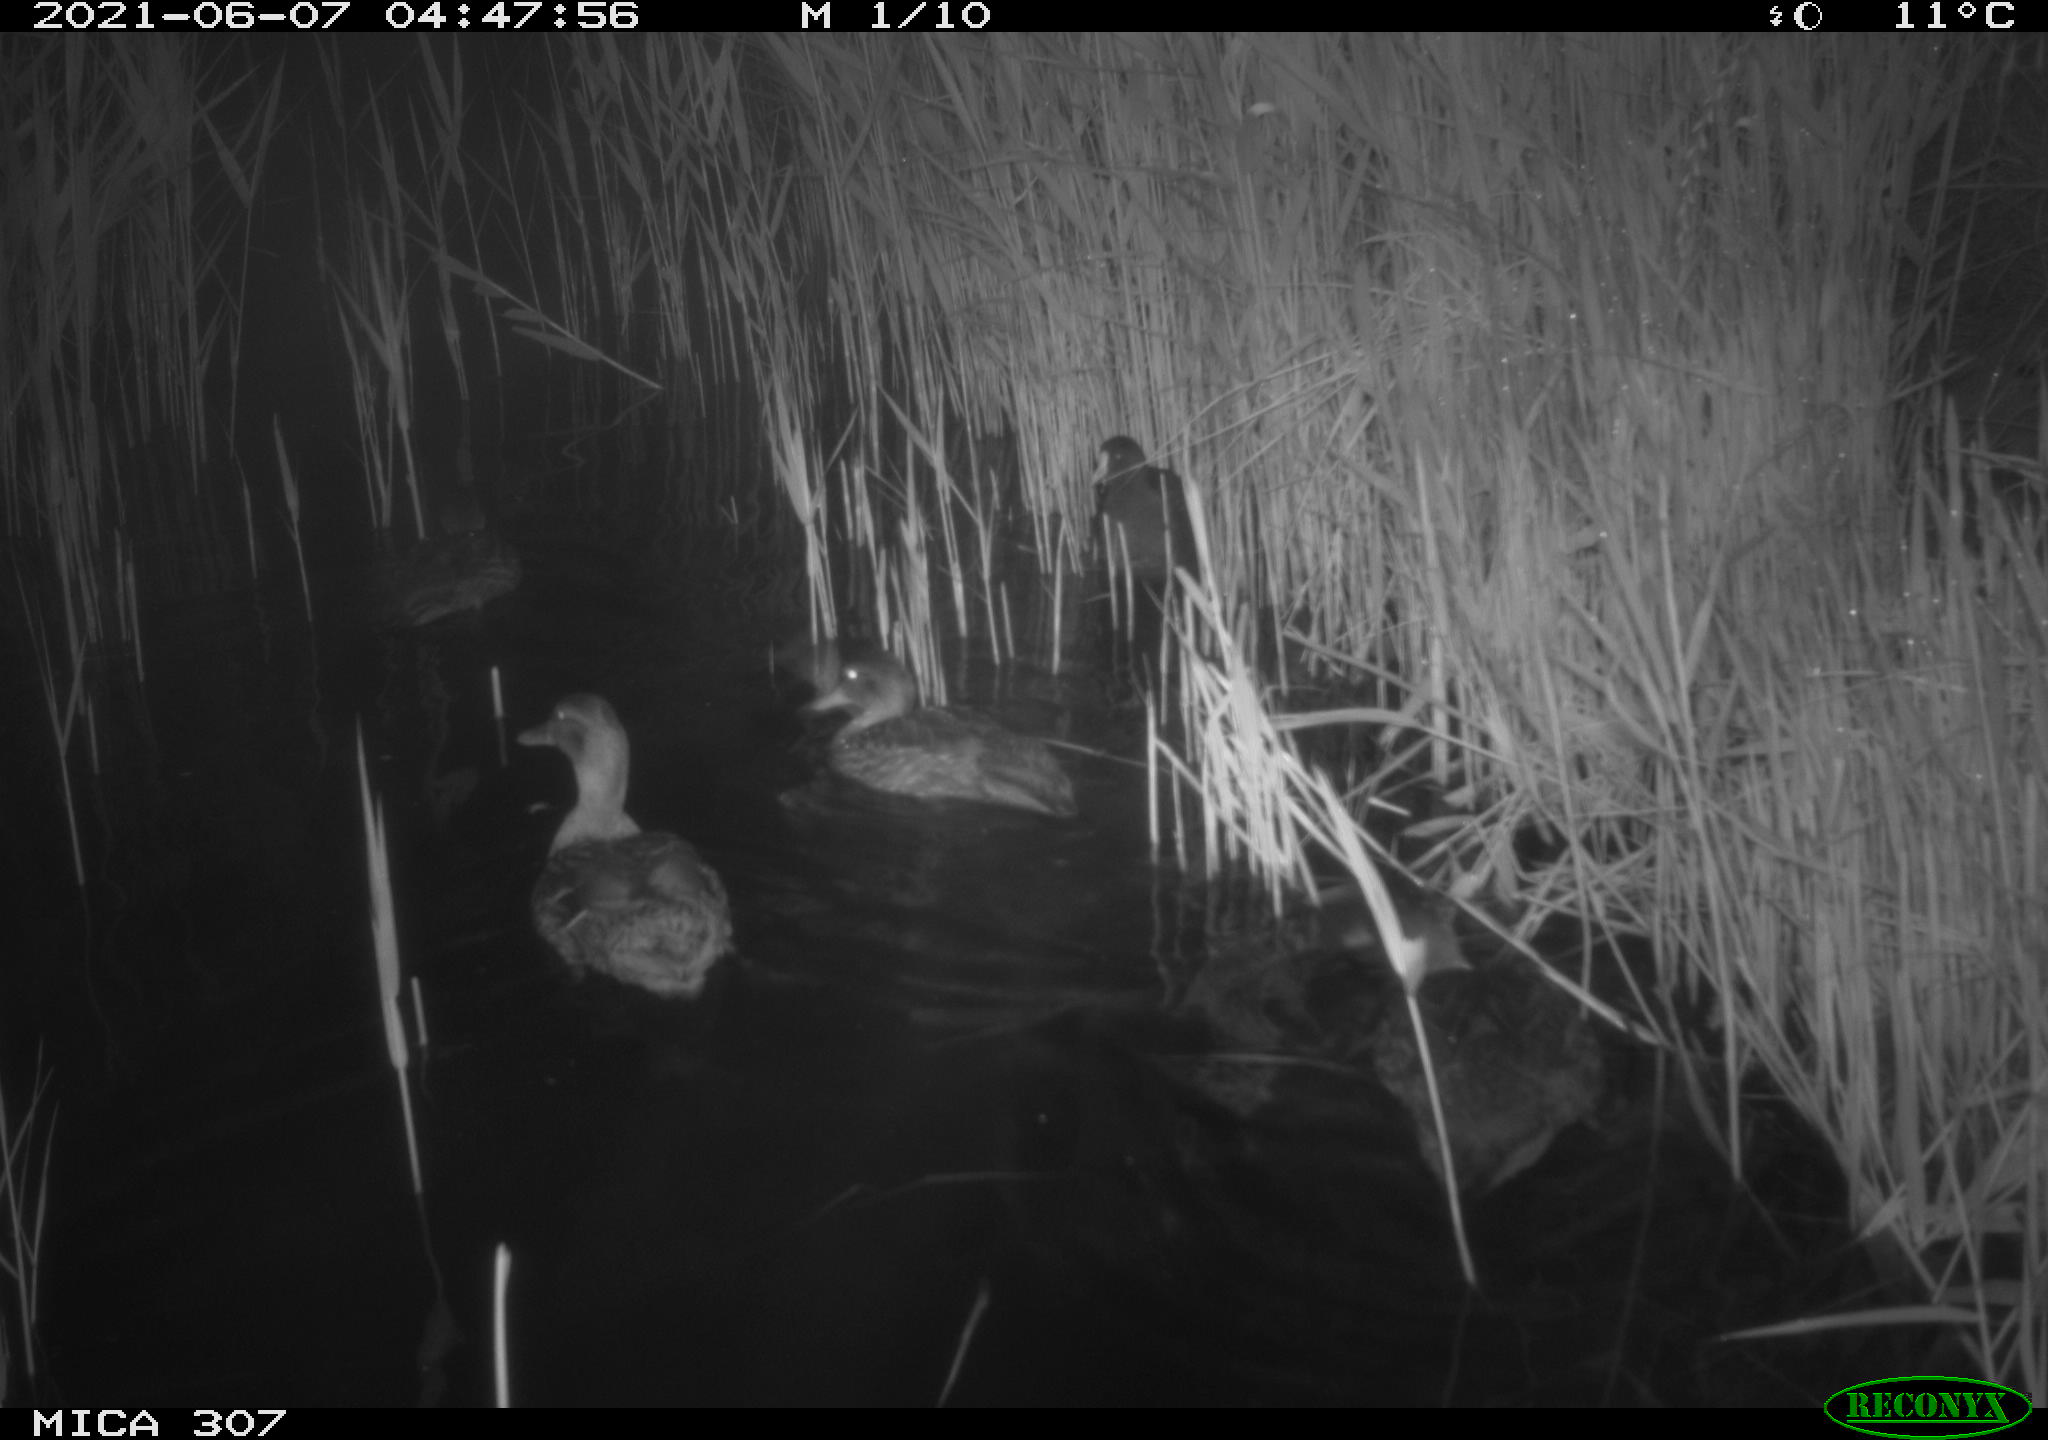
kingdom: Animalia
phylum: Chordata
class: Aves
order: Gruiformes
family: Rallidae
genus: Fulica
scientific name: Fulica atra
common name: Eurasian coot
